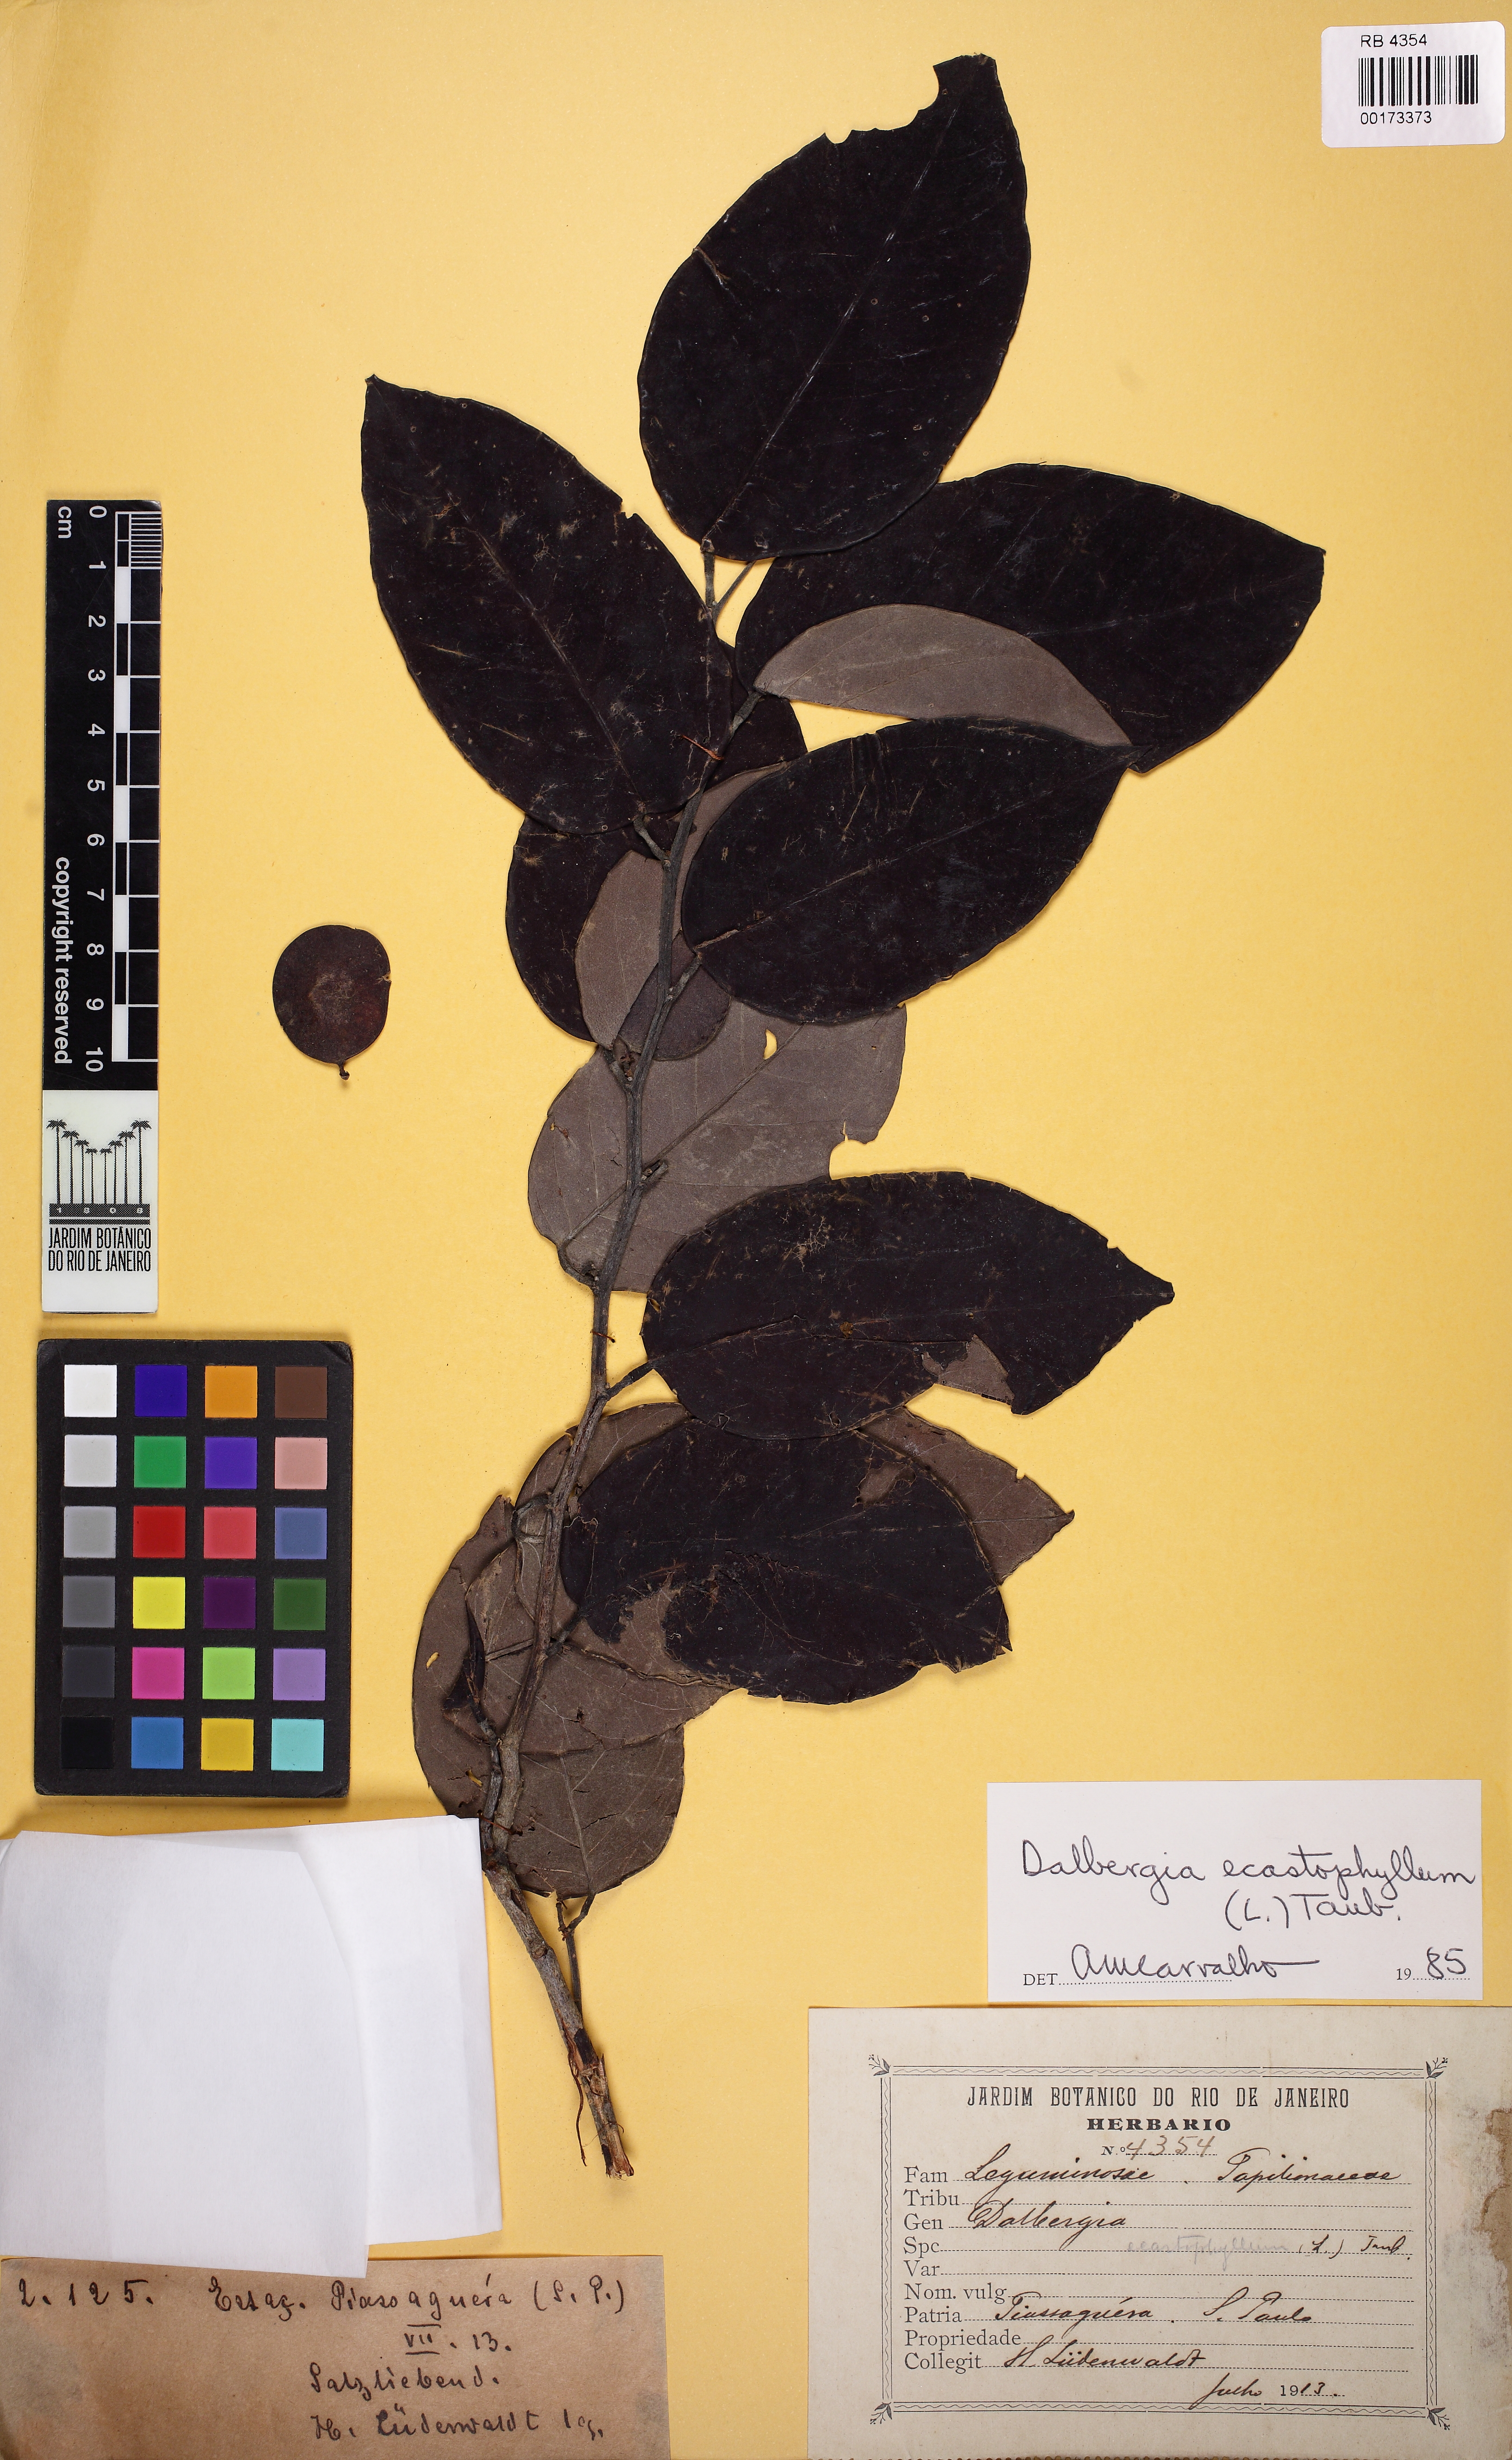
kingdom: Plantae
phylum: Tracheophyta
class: Magnoliopsida
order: Fabales
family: Fabaceae
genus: Dalbergia
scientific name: Dalbergia ecastaphyllum
